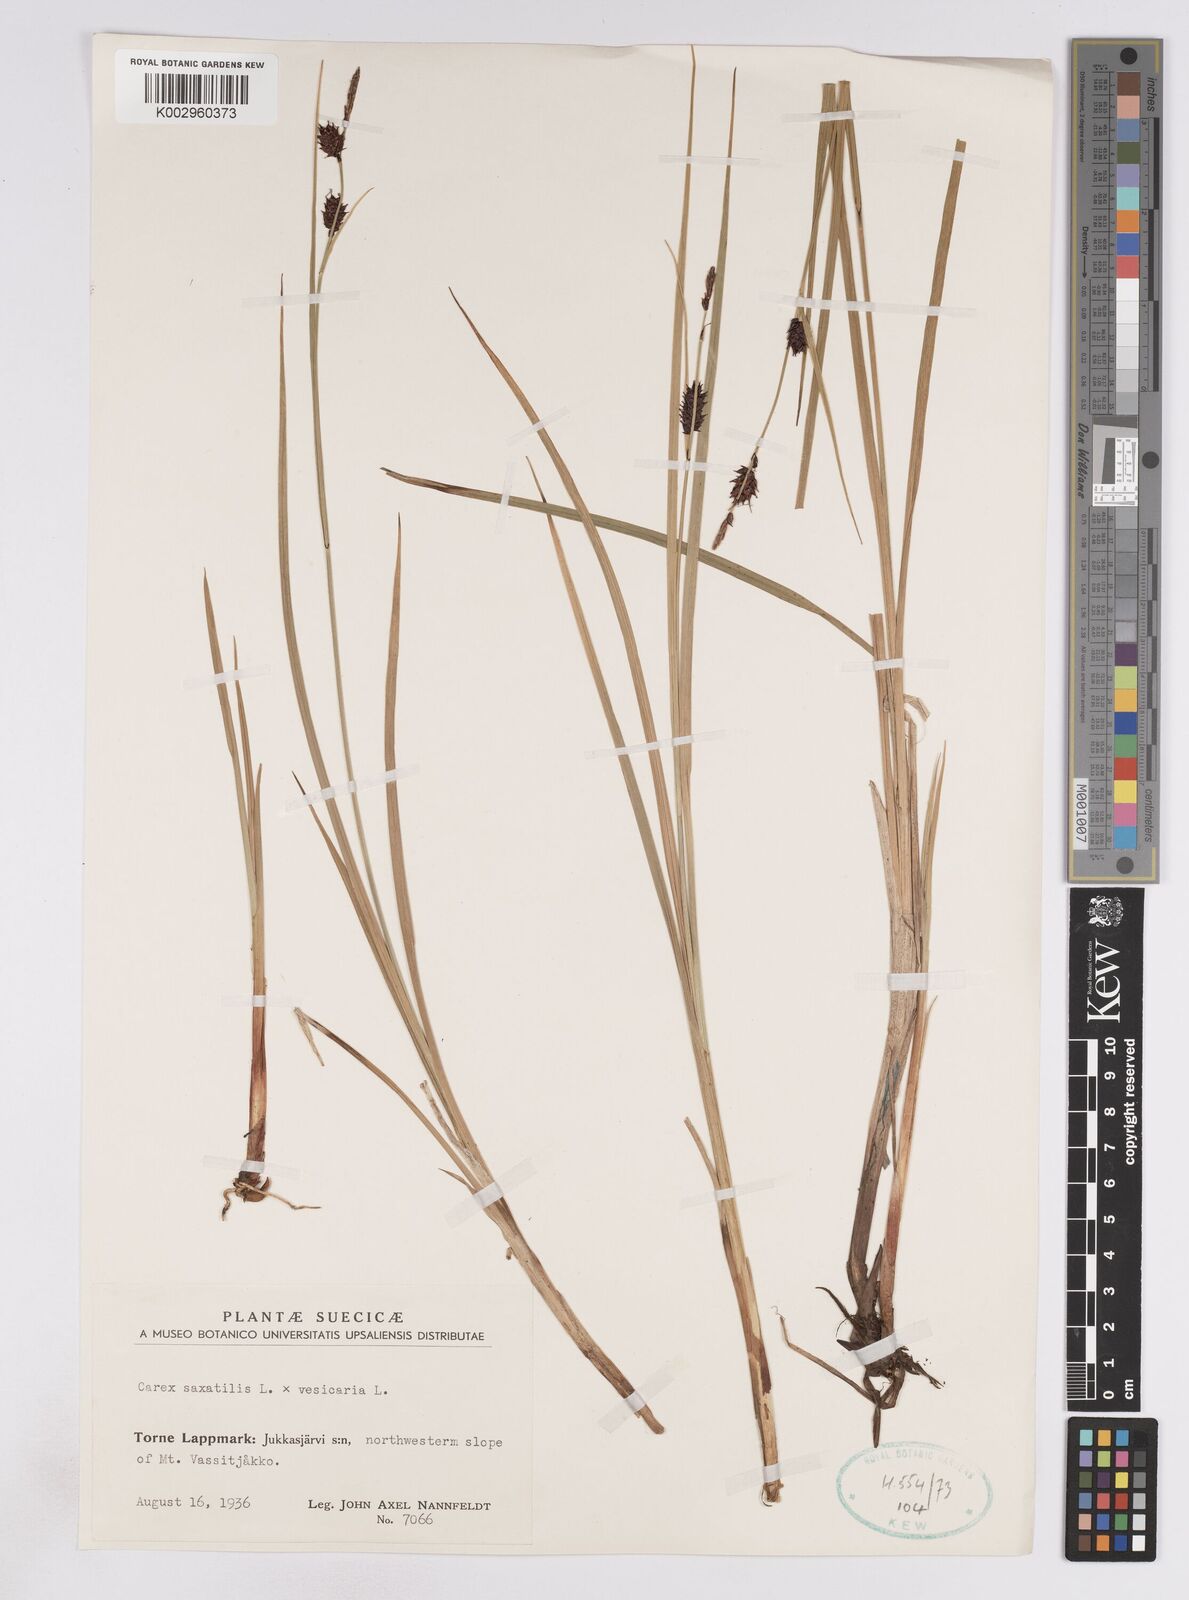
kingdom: Plantae
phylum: Tracheophyta
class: Liliopsida
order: Poales
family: Cyperaceae
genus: Carex
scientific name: Carex vesicaria
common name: Bladder-sedge
